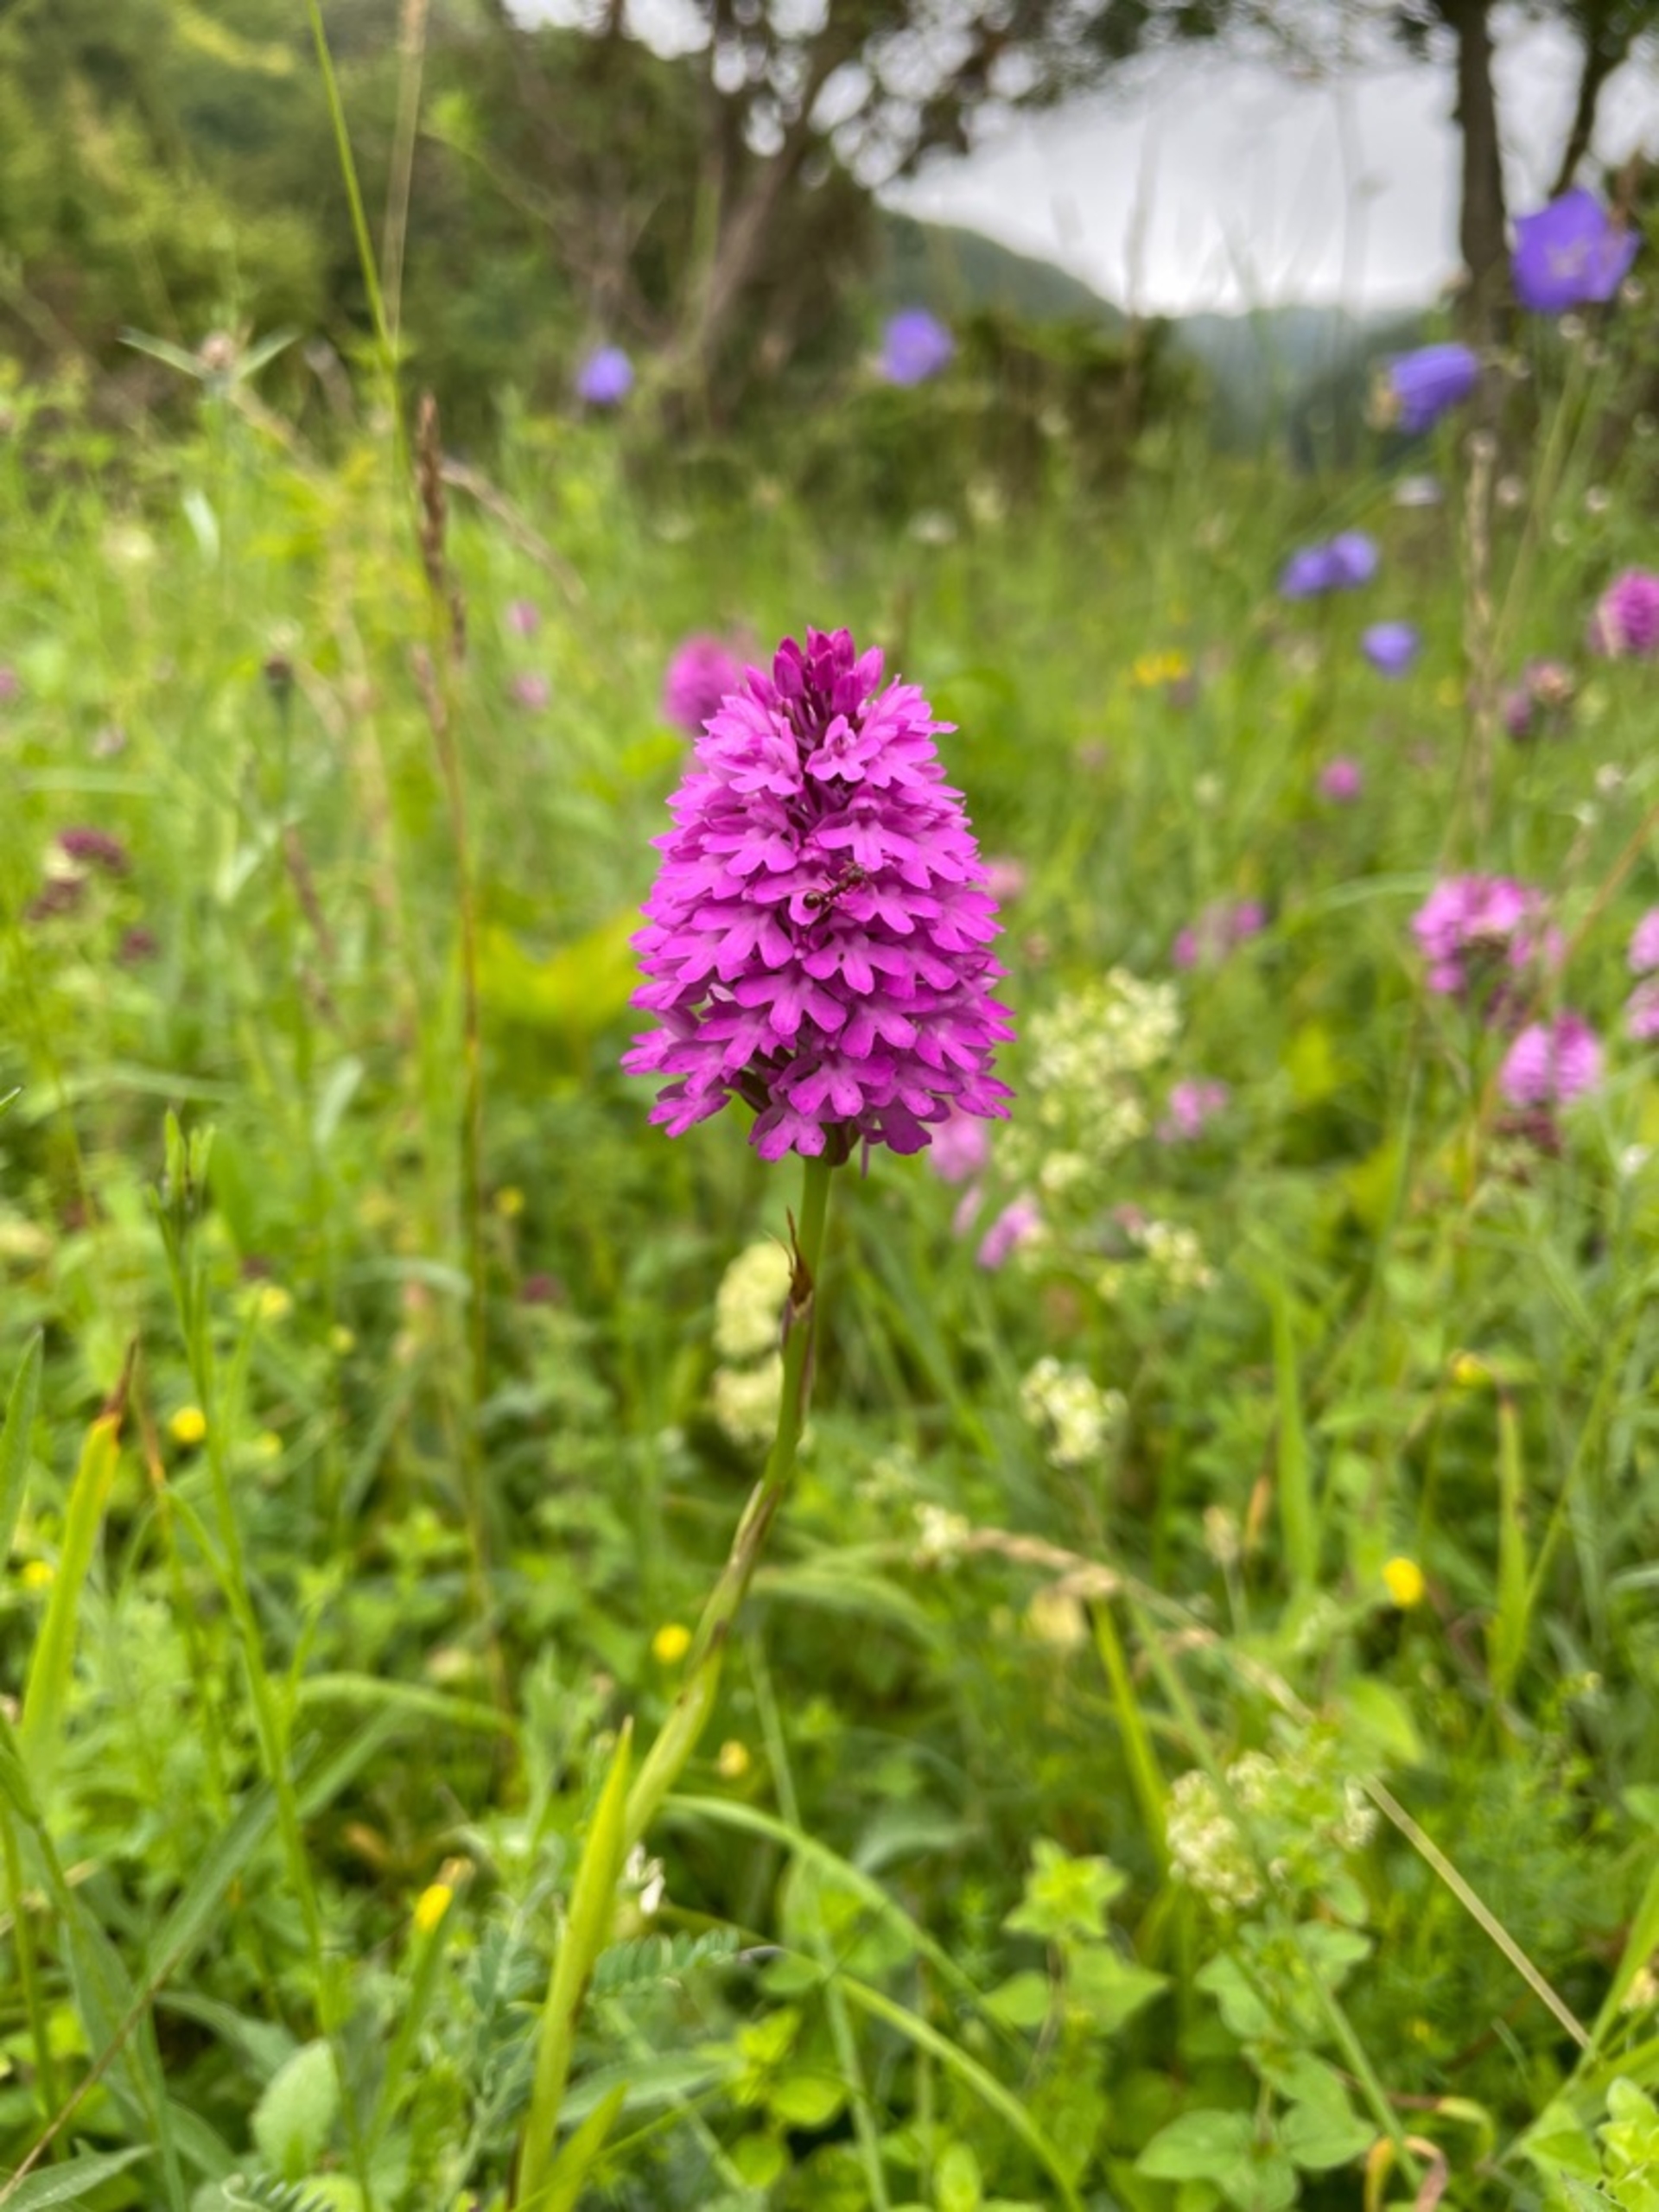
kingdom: Plantae
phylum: Tracheophyta
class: Liliopsida
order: Asparagales
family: Orchidaceae
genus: Anacamptis
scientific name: Anacamptis pyramidalis
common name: Horndrager
